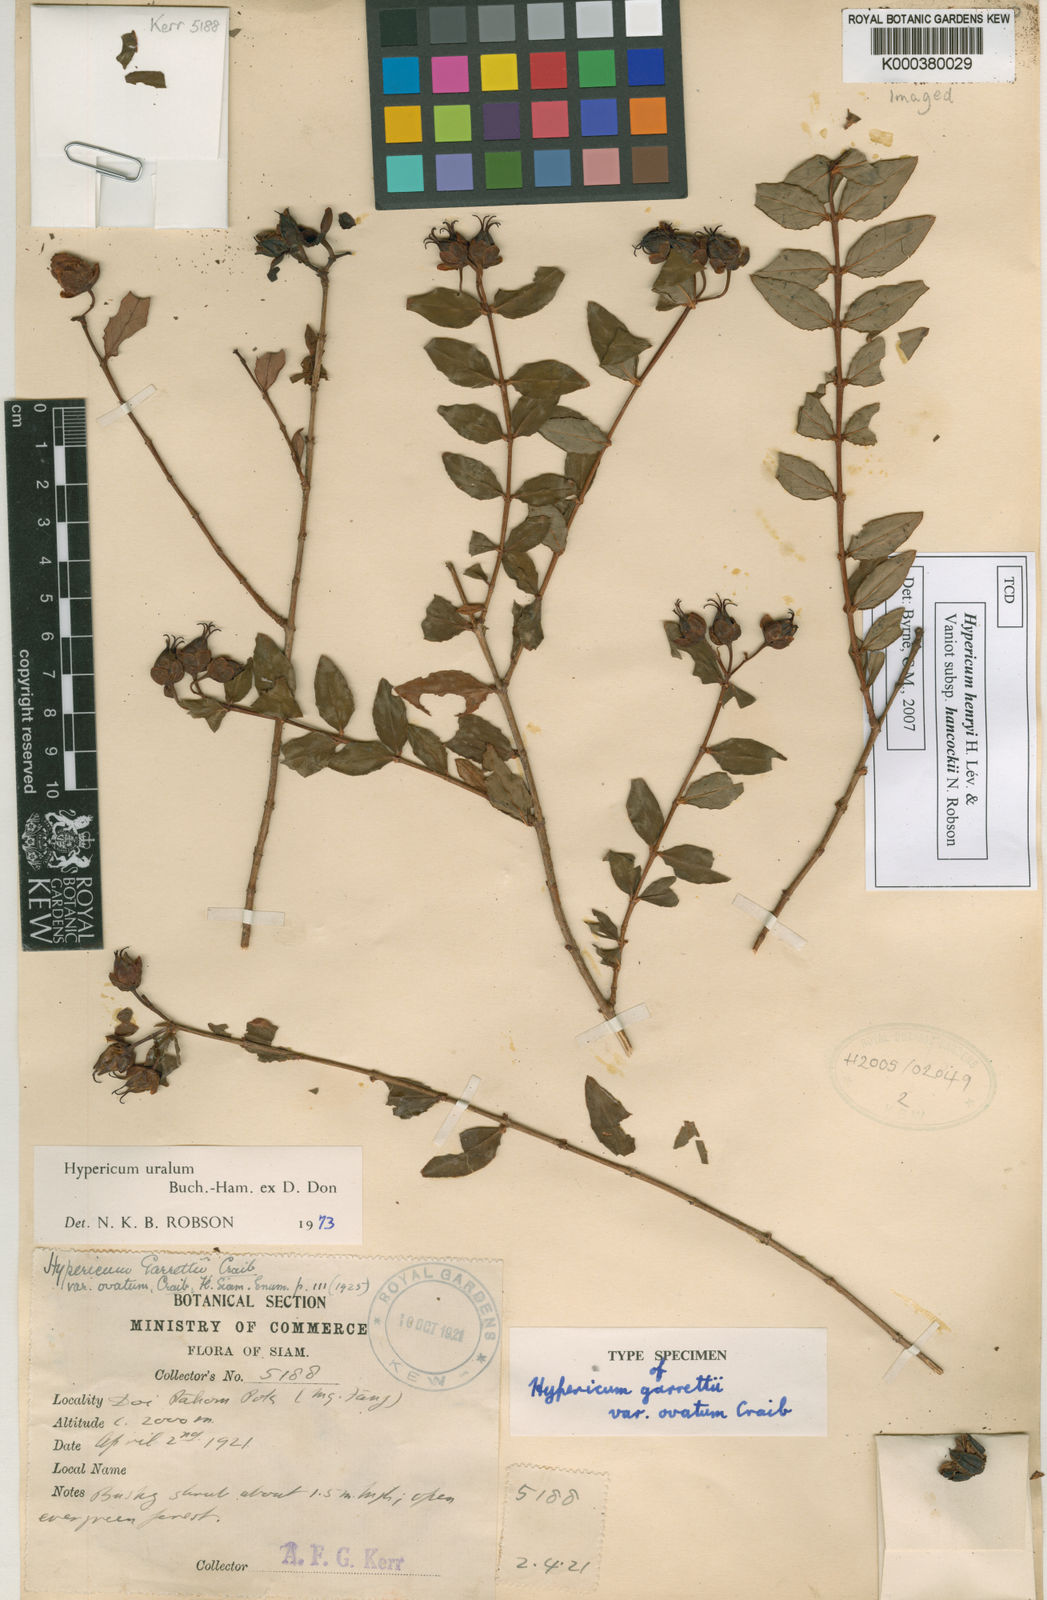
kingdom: Plantae
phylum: Tracheophyta
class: Magnoliopsida
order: Malpighiales
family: Hypericaceae
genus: Hypericum
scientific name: Hypericum
